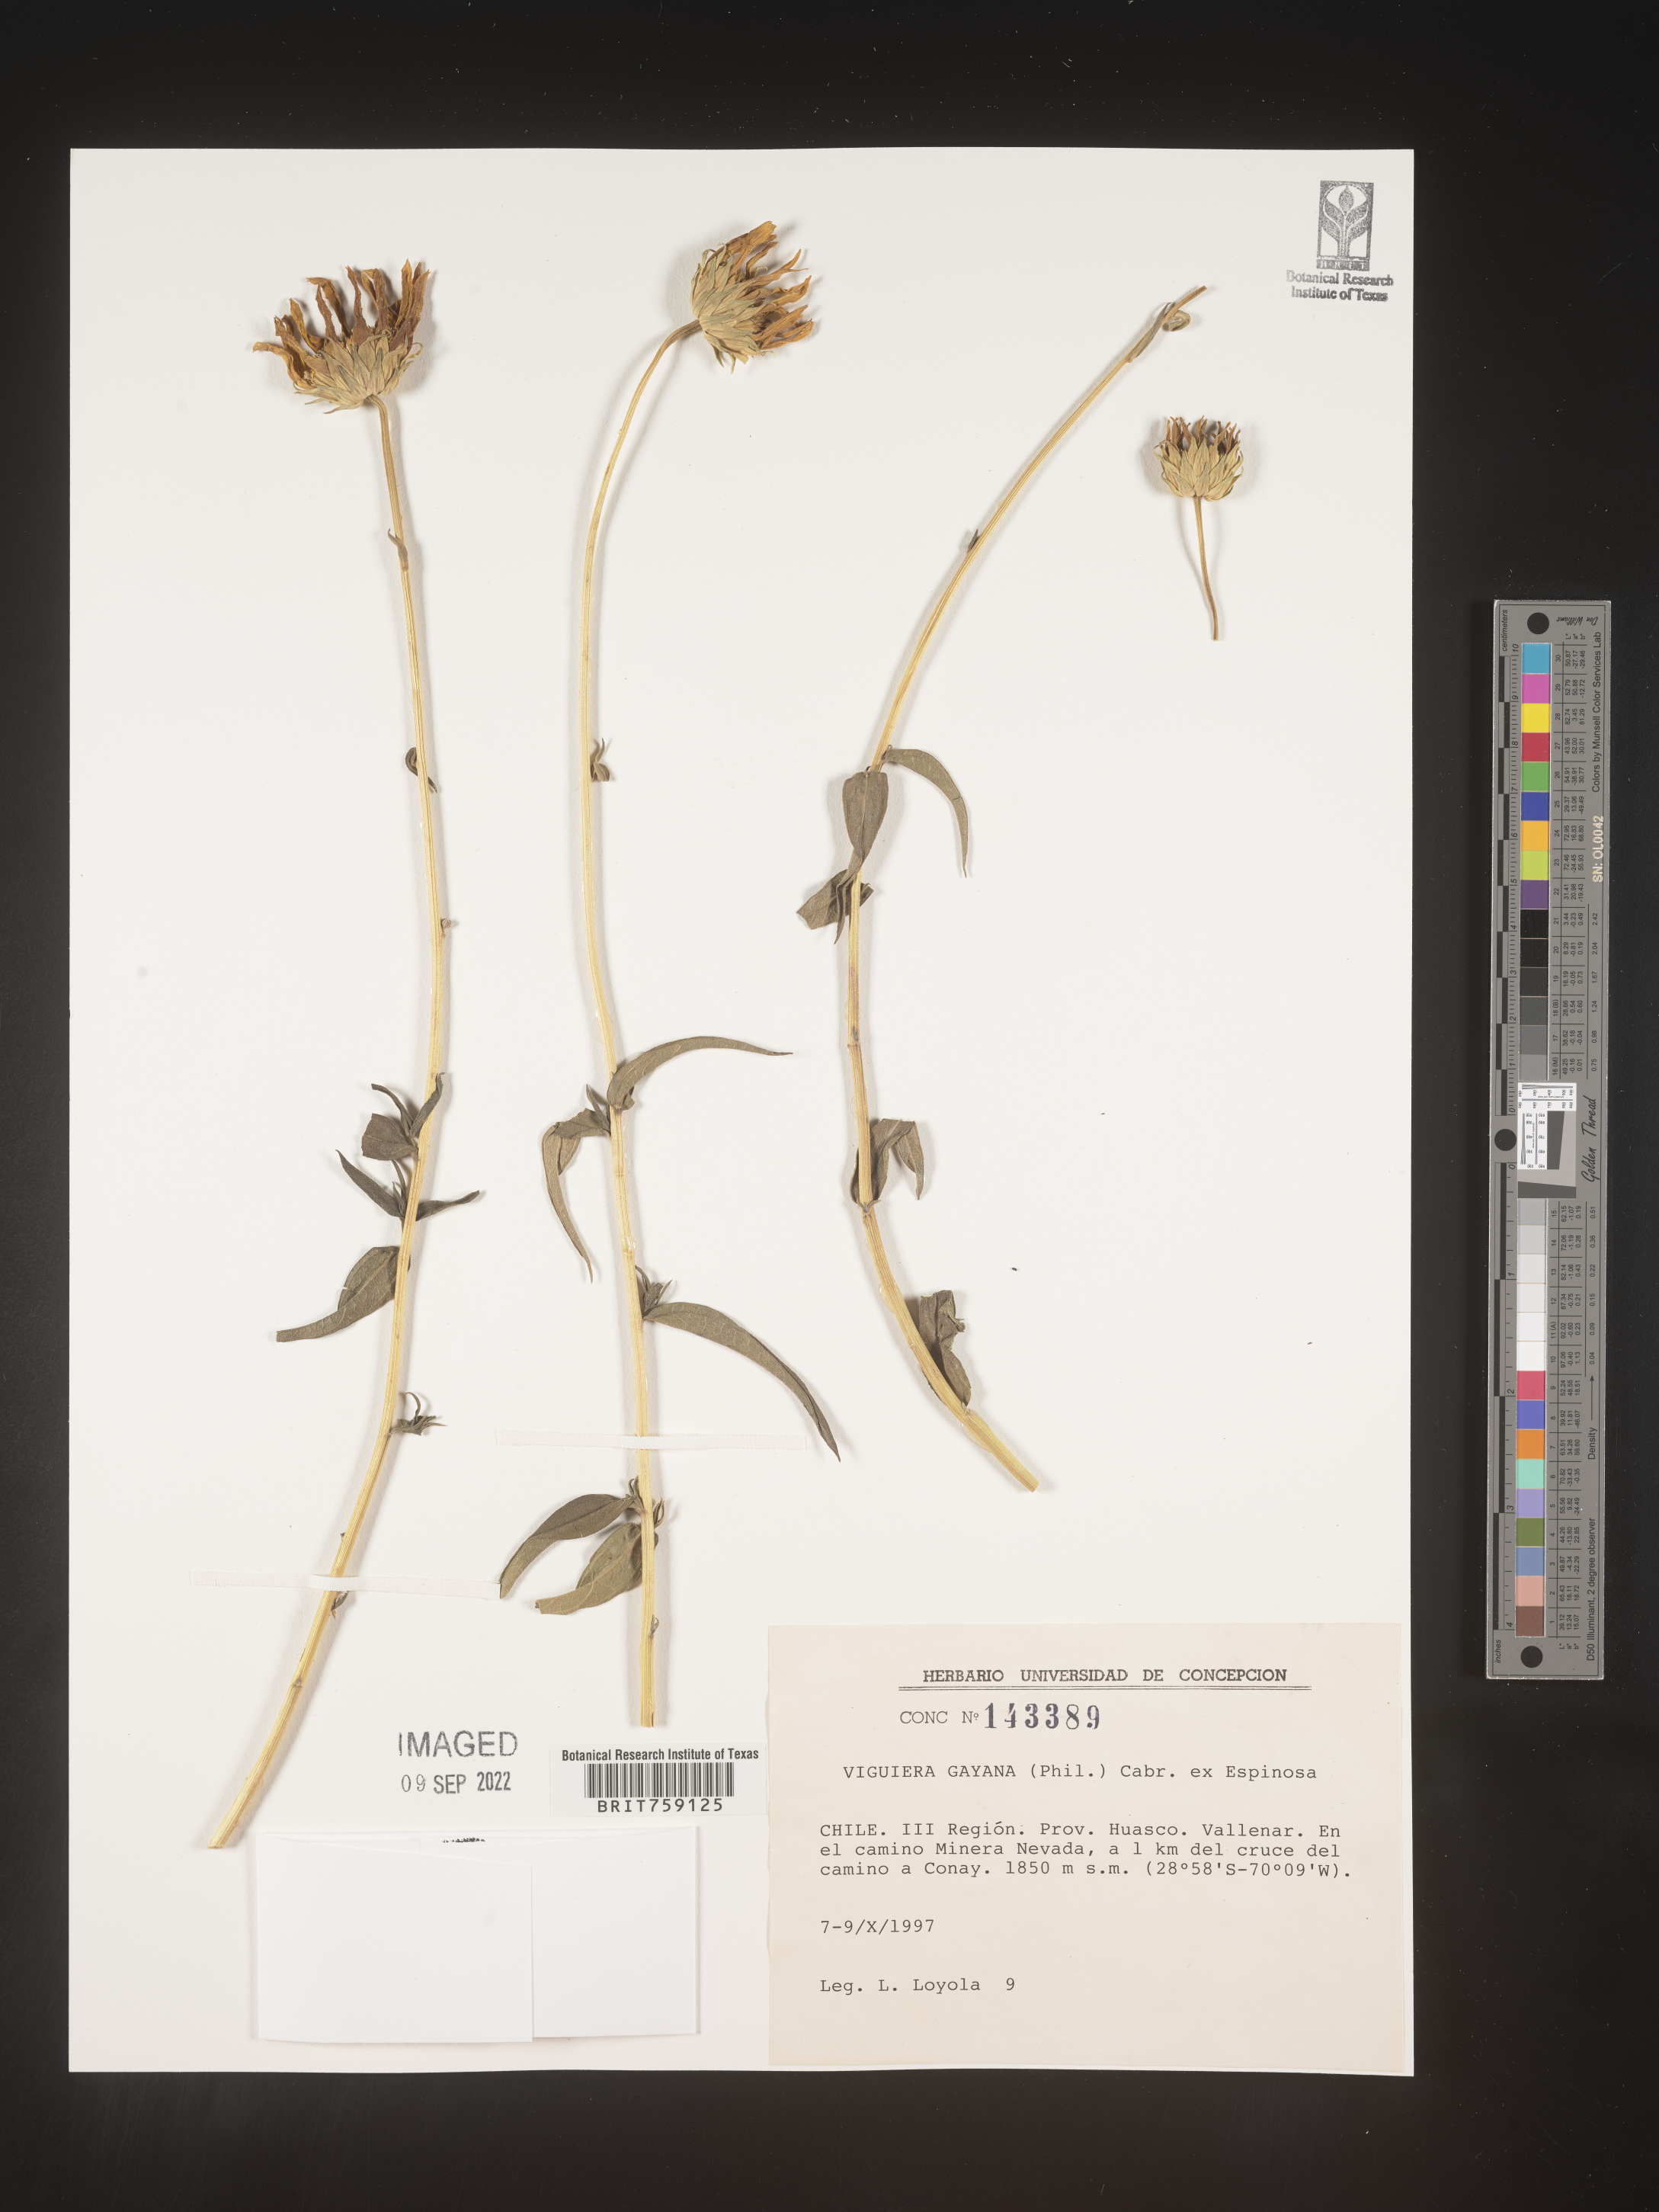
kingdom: Plantae
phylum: Tracheophyta
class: Magnoliopsida
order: Asterales
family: Asteraceae
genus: Viguiera
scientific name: Viguiera
